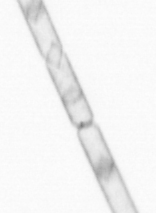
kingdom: Chromista
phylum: Ochrophyta
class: Bacillariophyceae
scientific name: Bacillariophyceae
